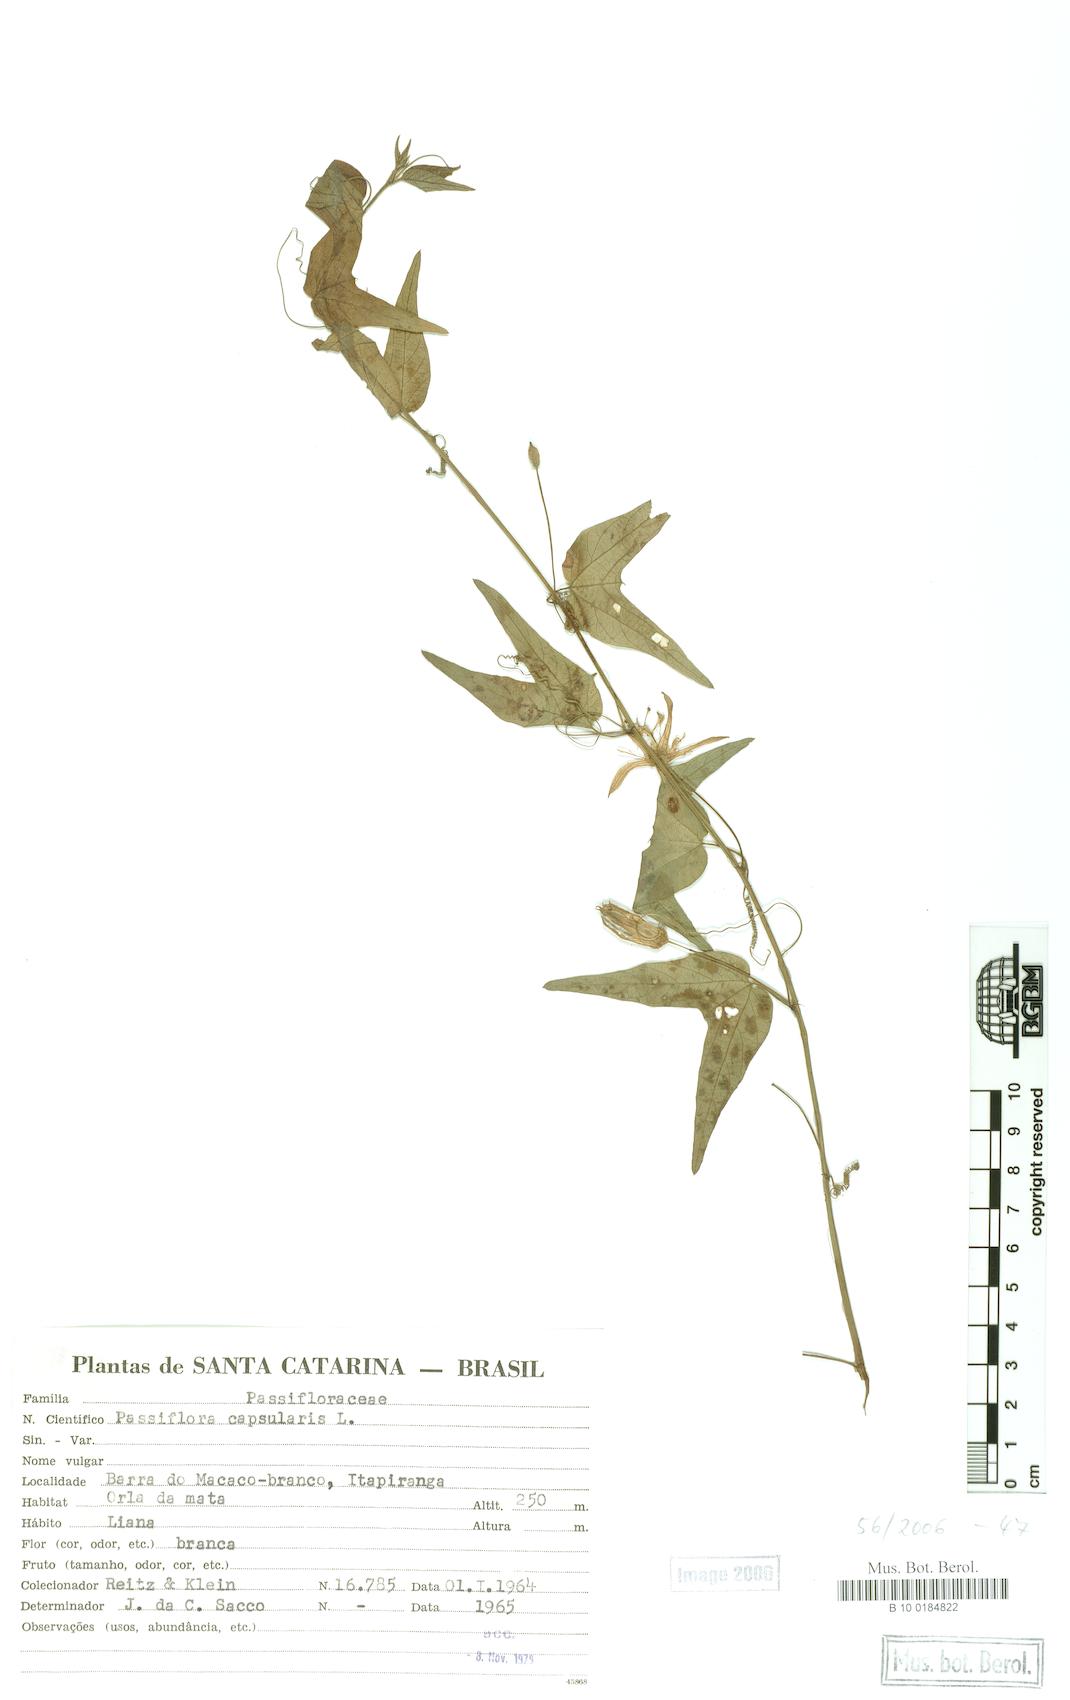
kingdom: Plantae
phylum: Tracheophyta
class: Magnoliopsida
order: Malpighiales
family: Passifloraceae
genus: Passiflora
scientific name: Passiflora capsularis
